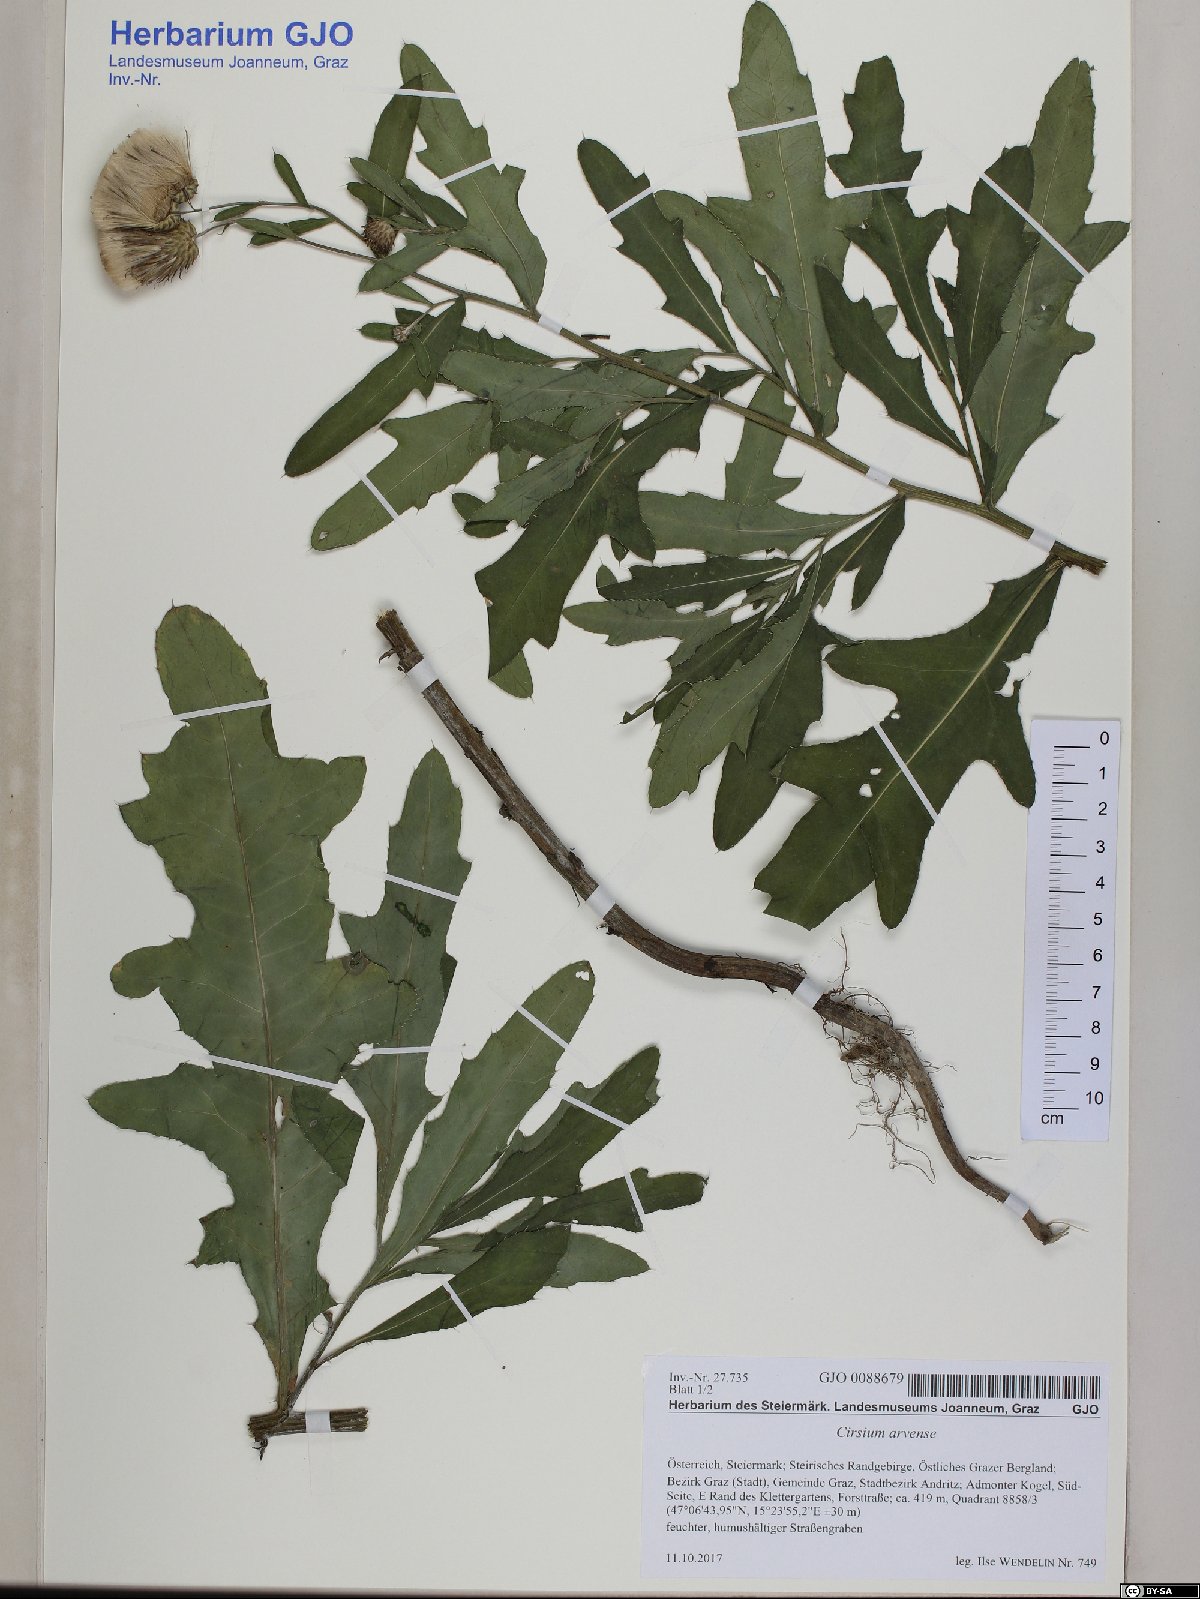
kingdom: Plantae
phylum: Tracheophyta
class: Magnoliopsida
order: Asterales
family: Asteraceae
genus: Cirsium
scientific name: Cirsium arvense
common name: Creeping thistle
